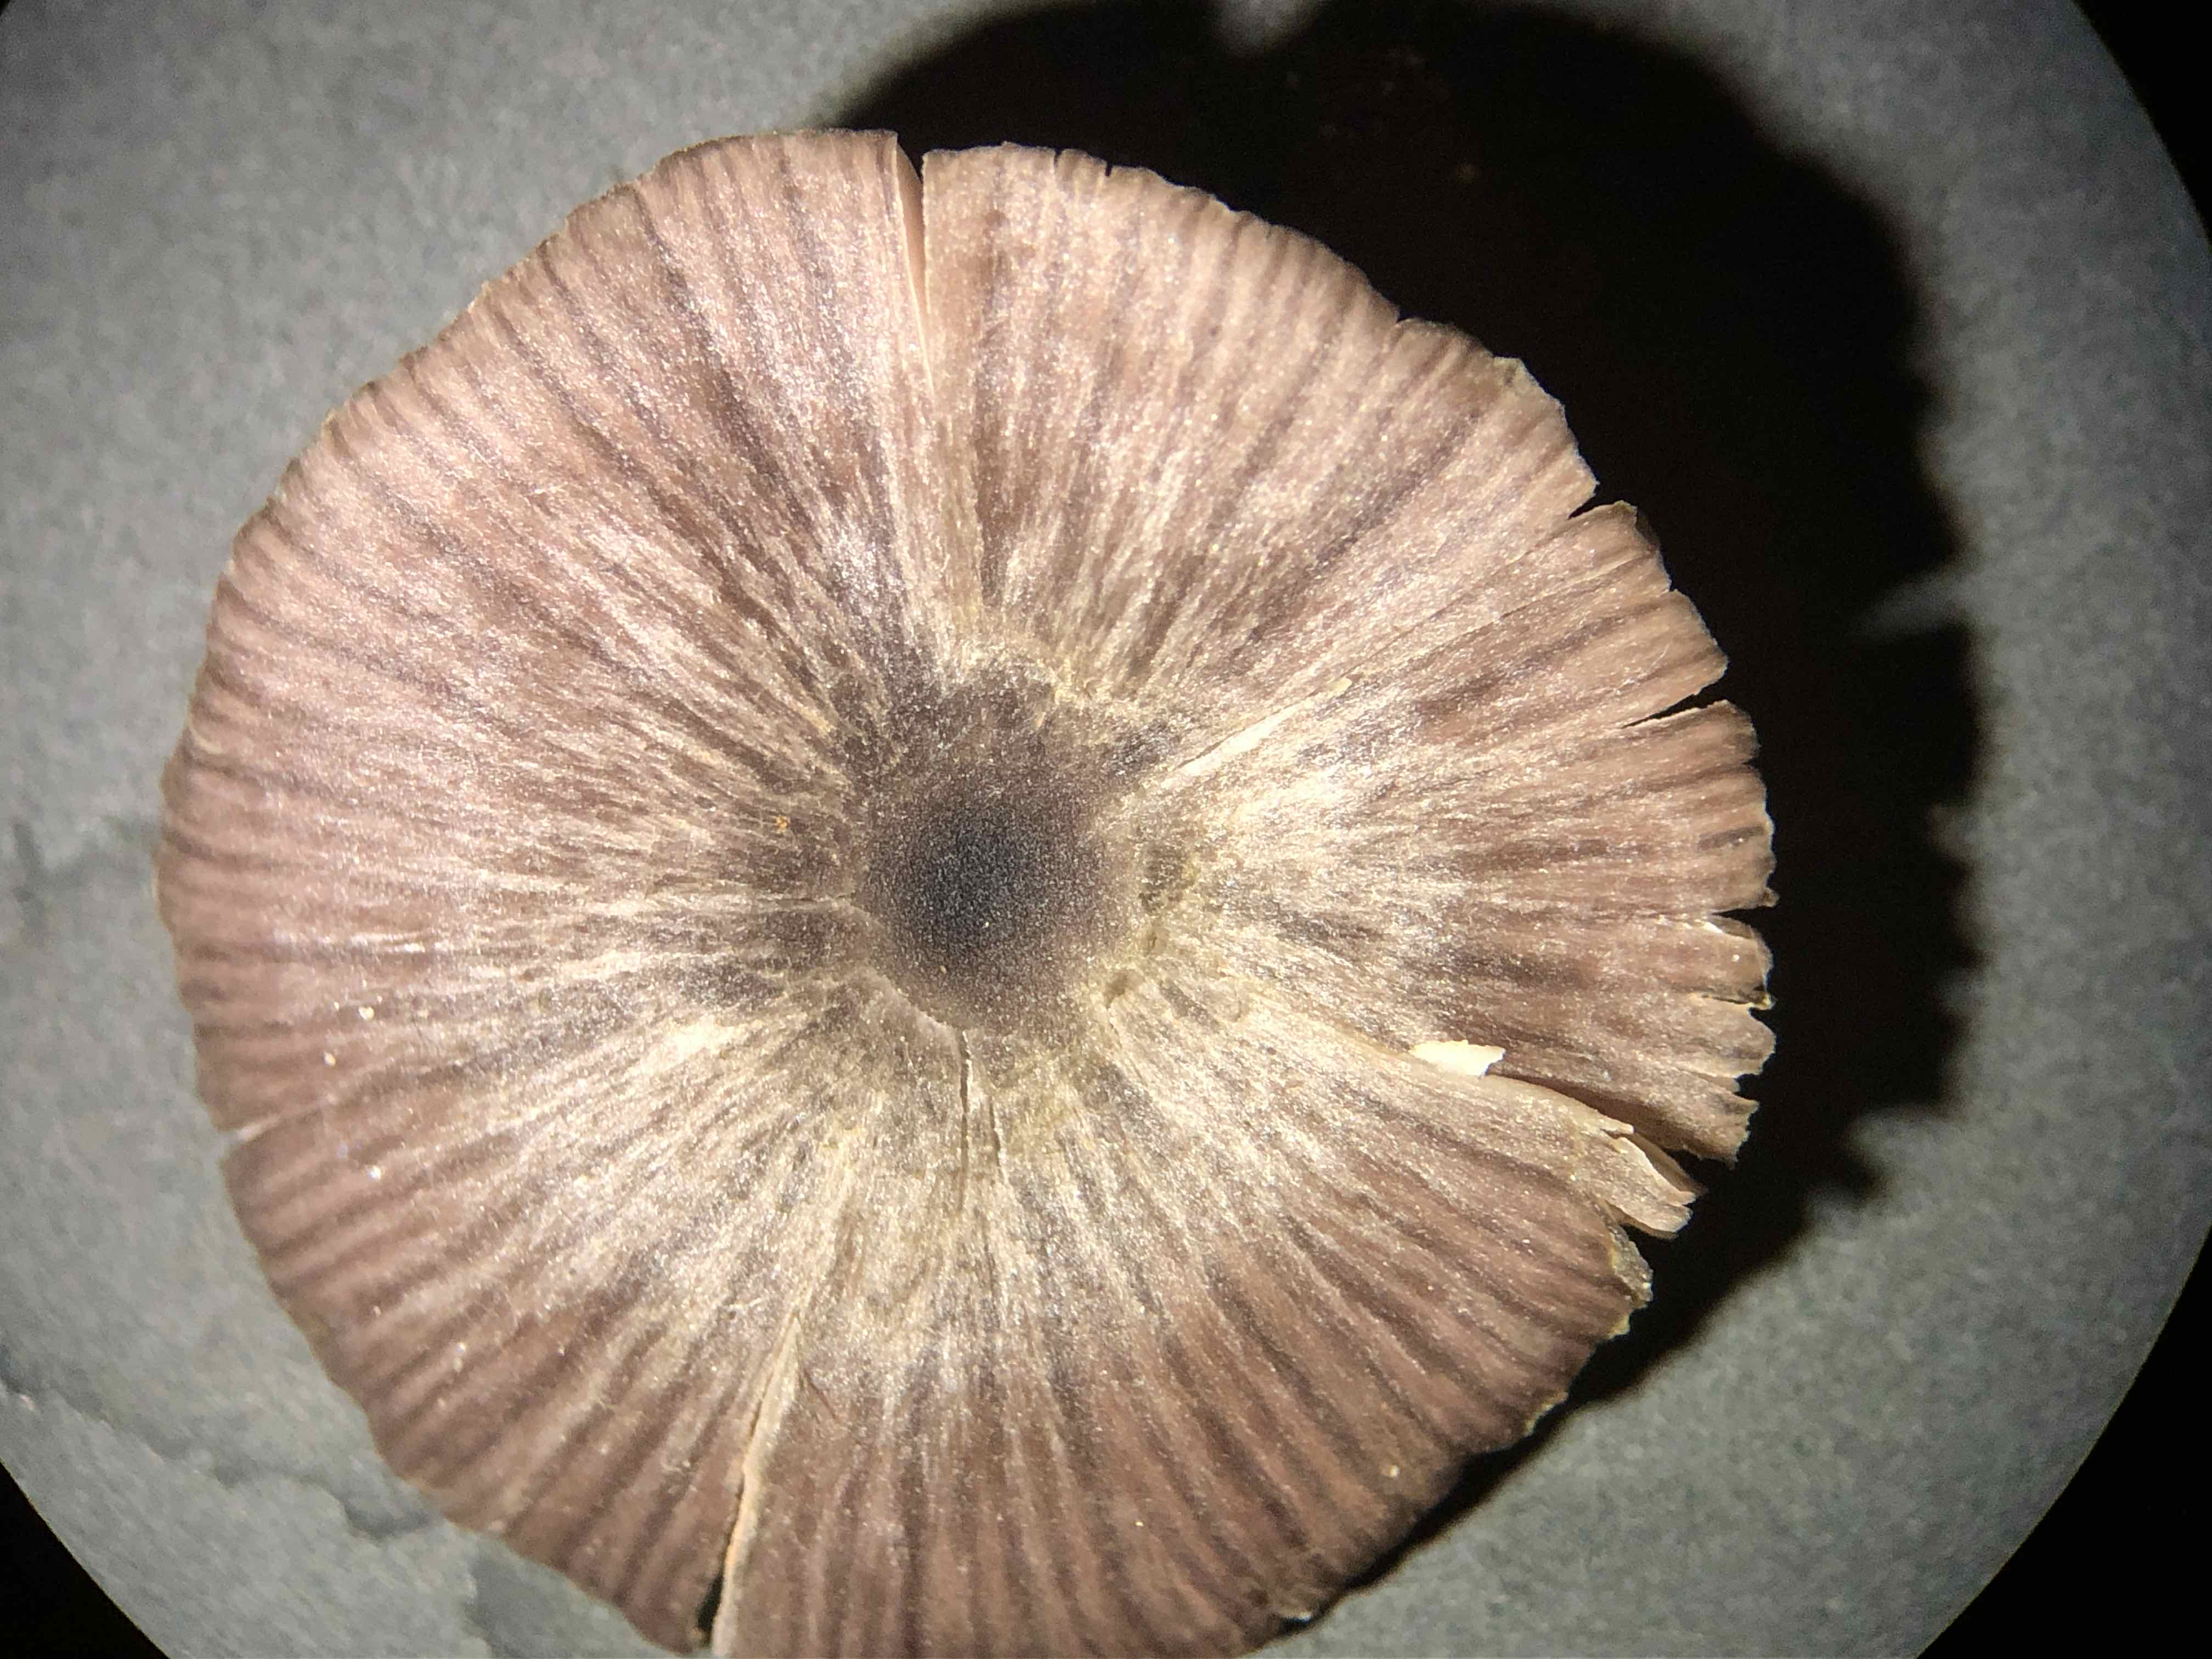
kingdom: Fungi
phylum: Basidiomycota
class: Agaricomycetes
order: Agaricales
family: Entolomataceae
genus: Entoloma
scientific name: Entoloma
